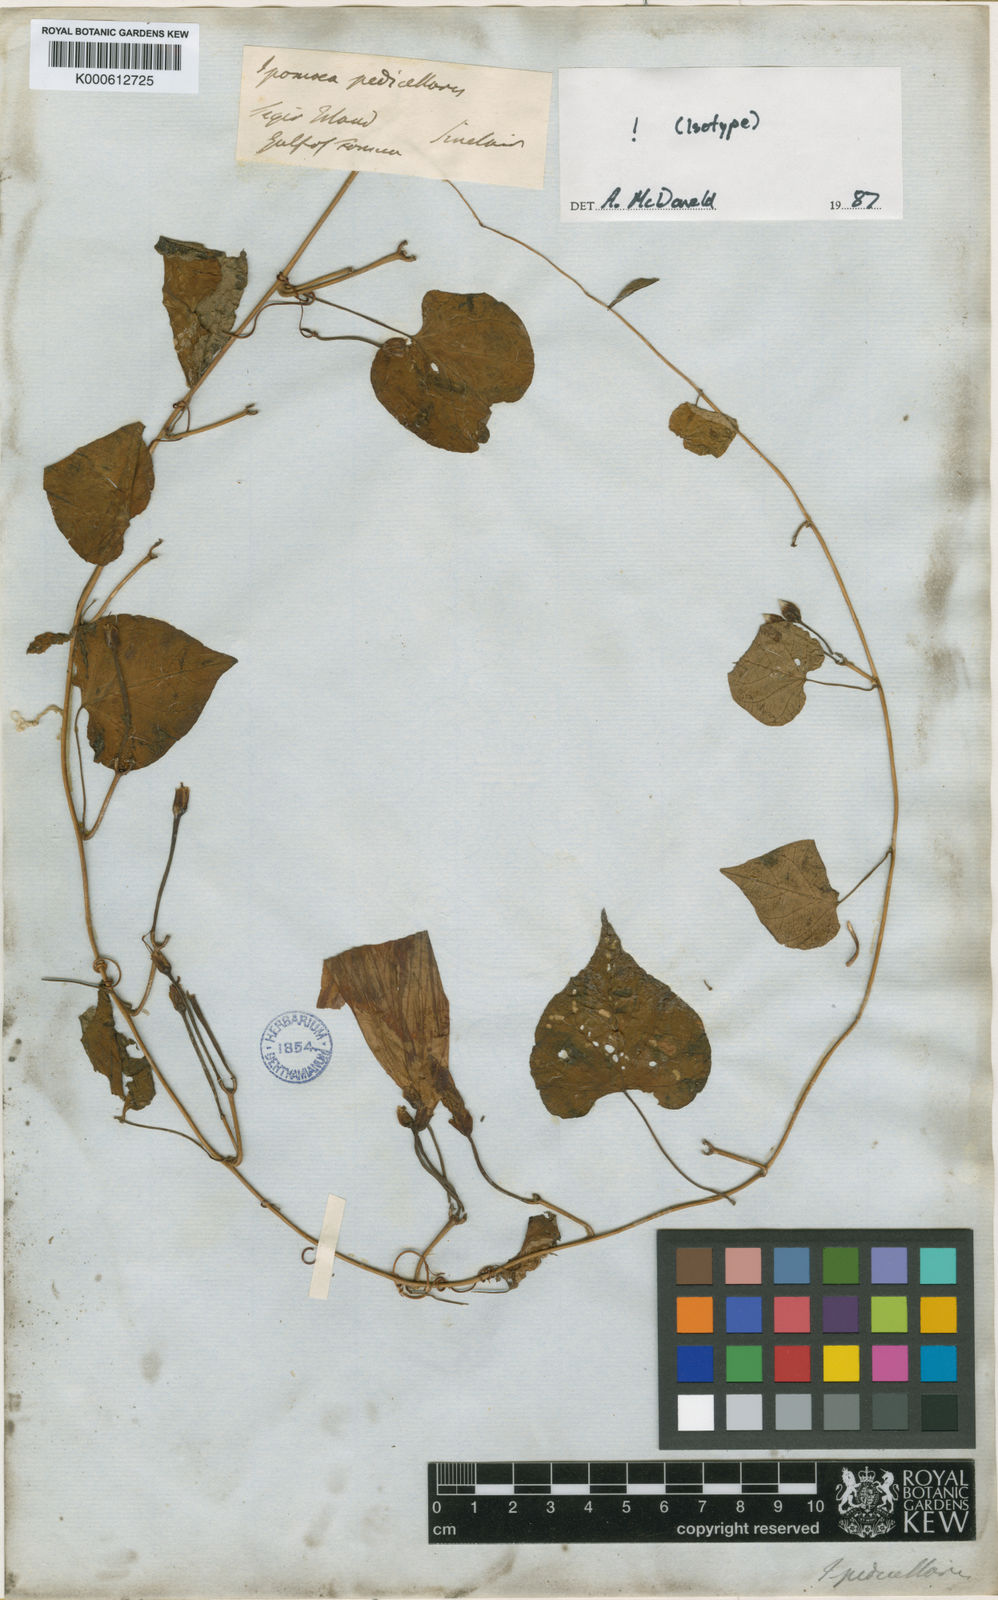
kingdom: Plantae
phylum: Tracheophyta
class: Magnoliopsida
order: Solanales
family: Convolvulaceae
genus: Ipomoea
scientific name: Ipomoea pedicellaris
